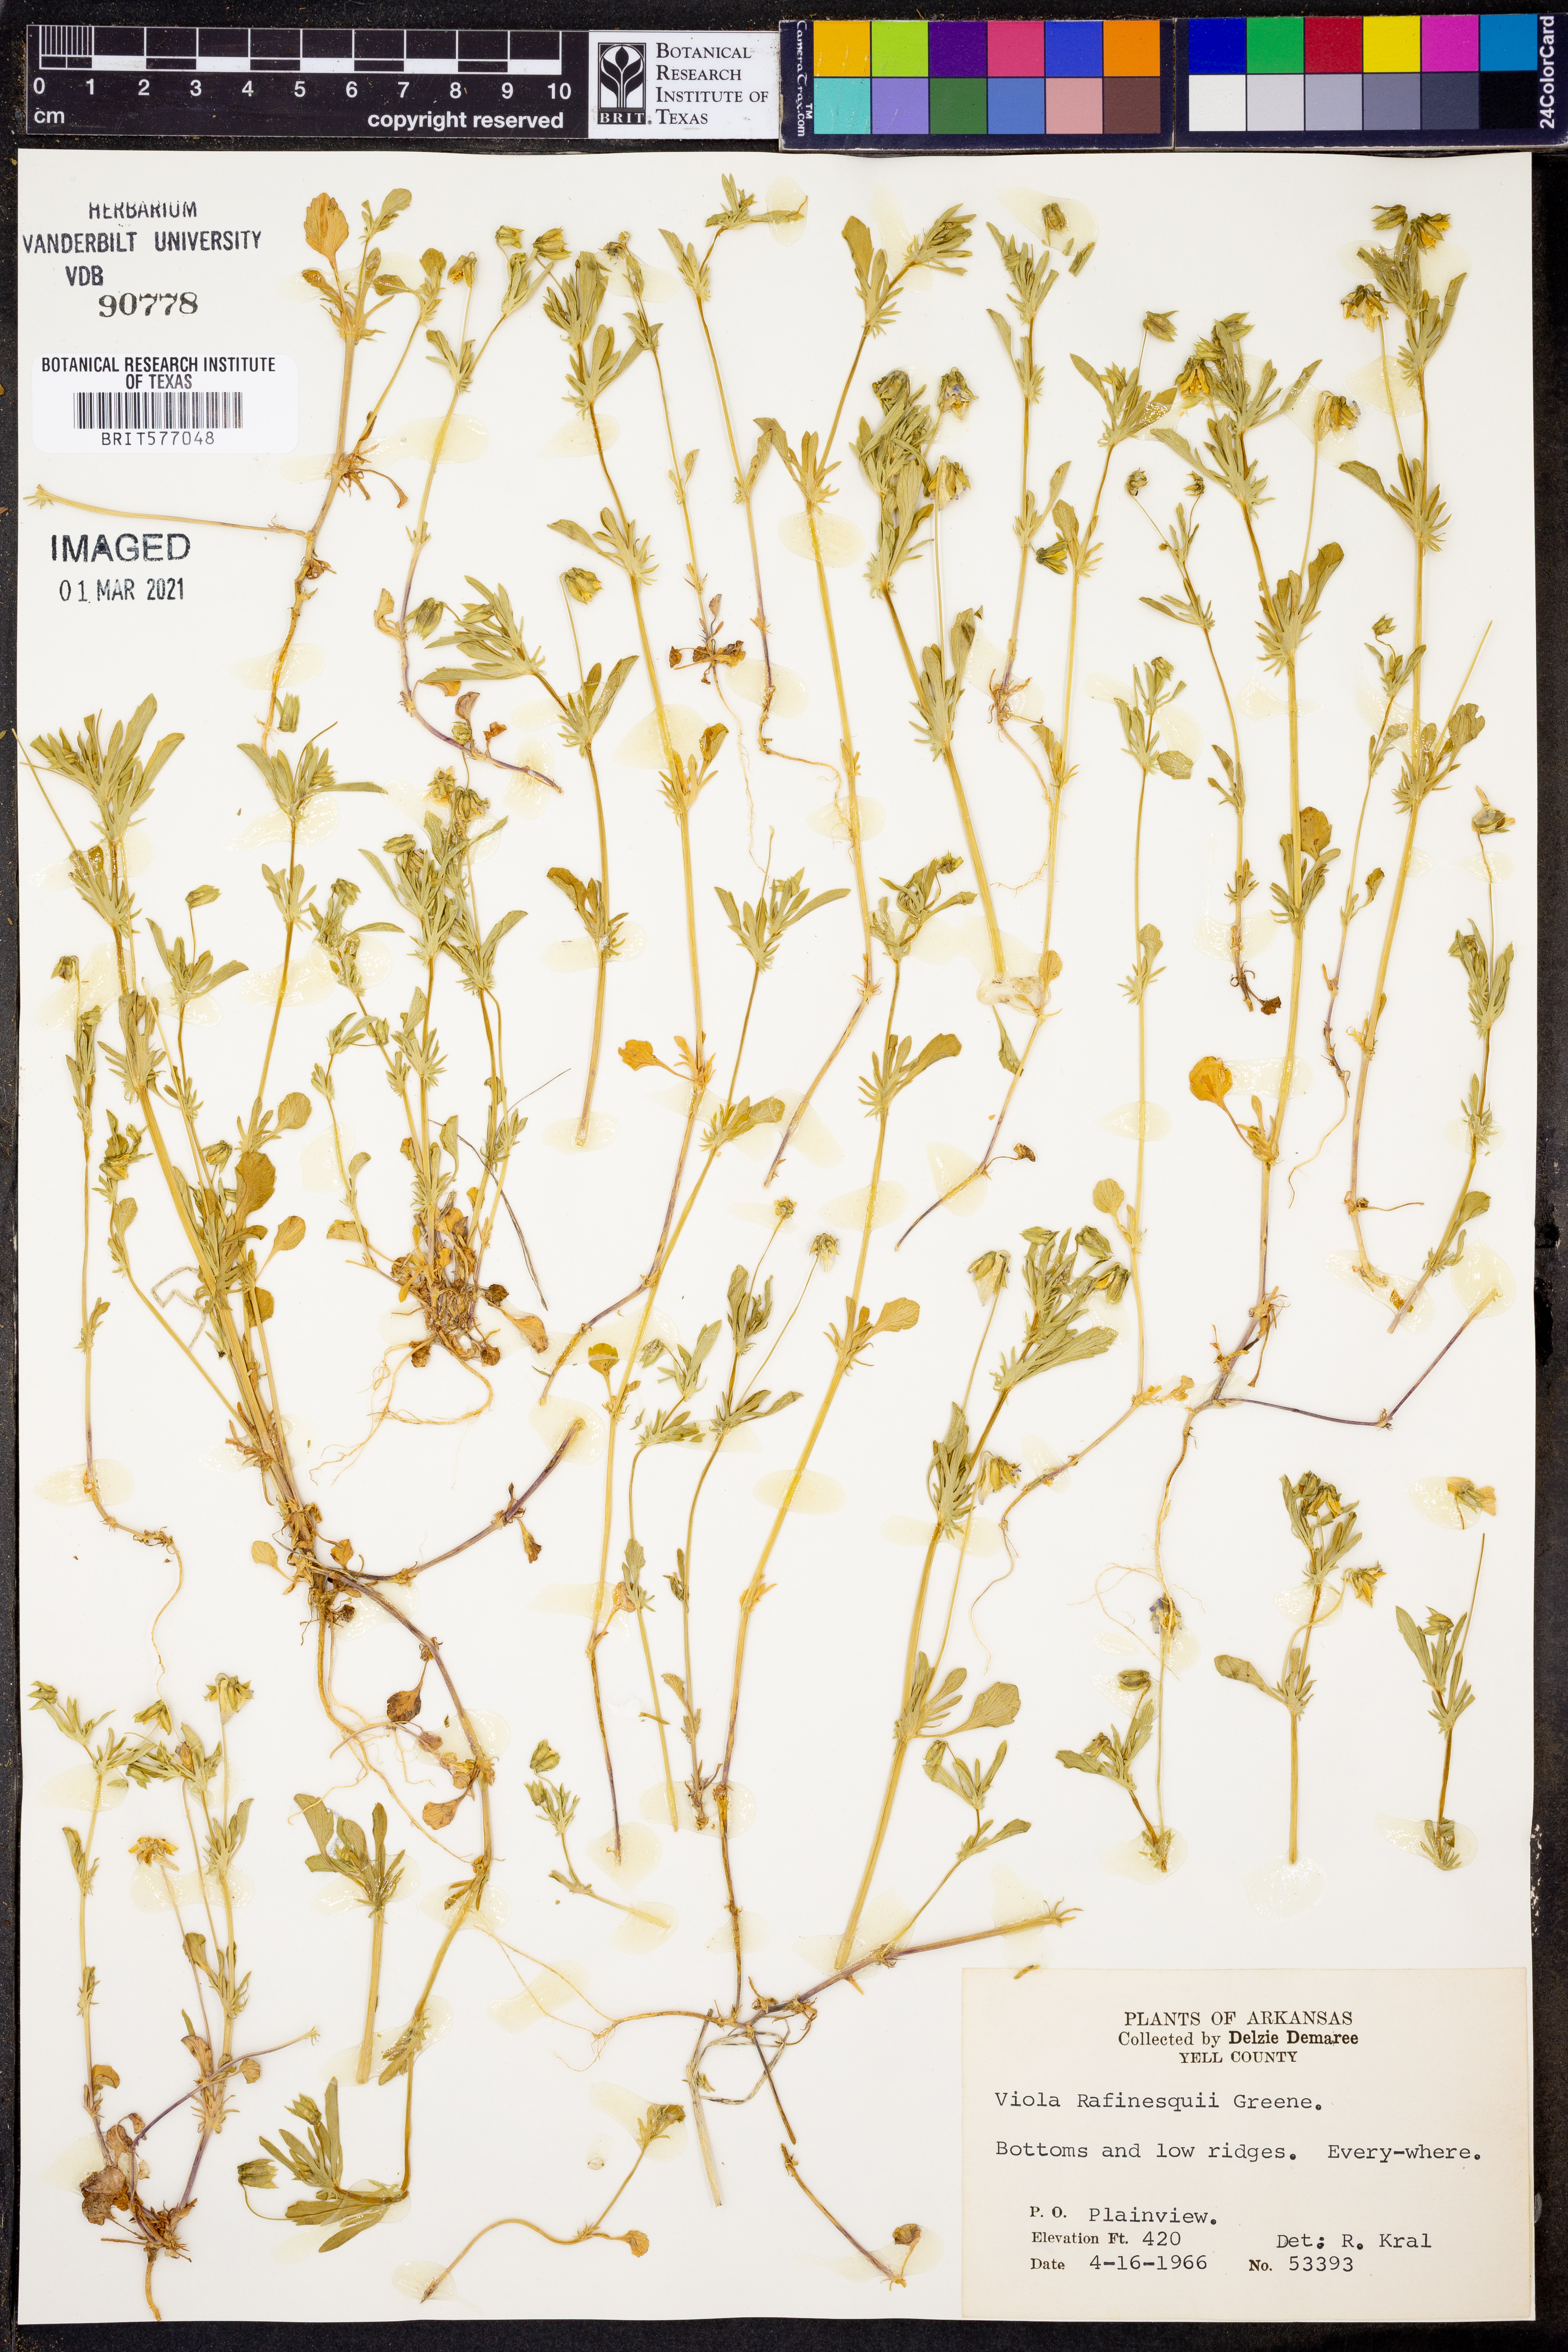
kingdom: Plantae
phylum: Tracheophyta
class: Magnoliopsida
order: Malpighiales
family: Violaceae
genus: Viola
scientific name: Viola rafinesquei
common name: American field pansy
